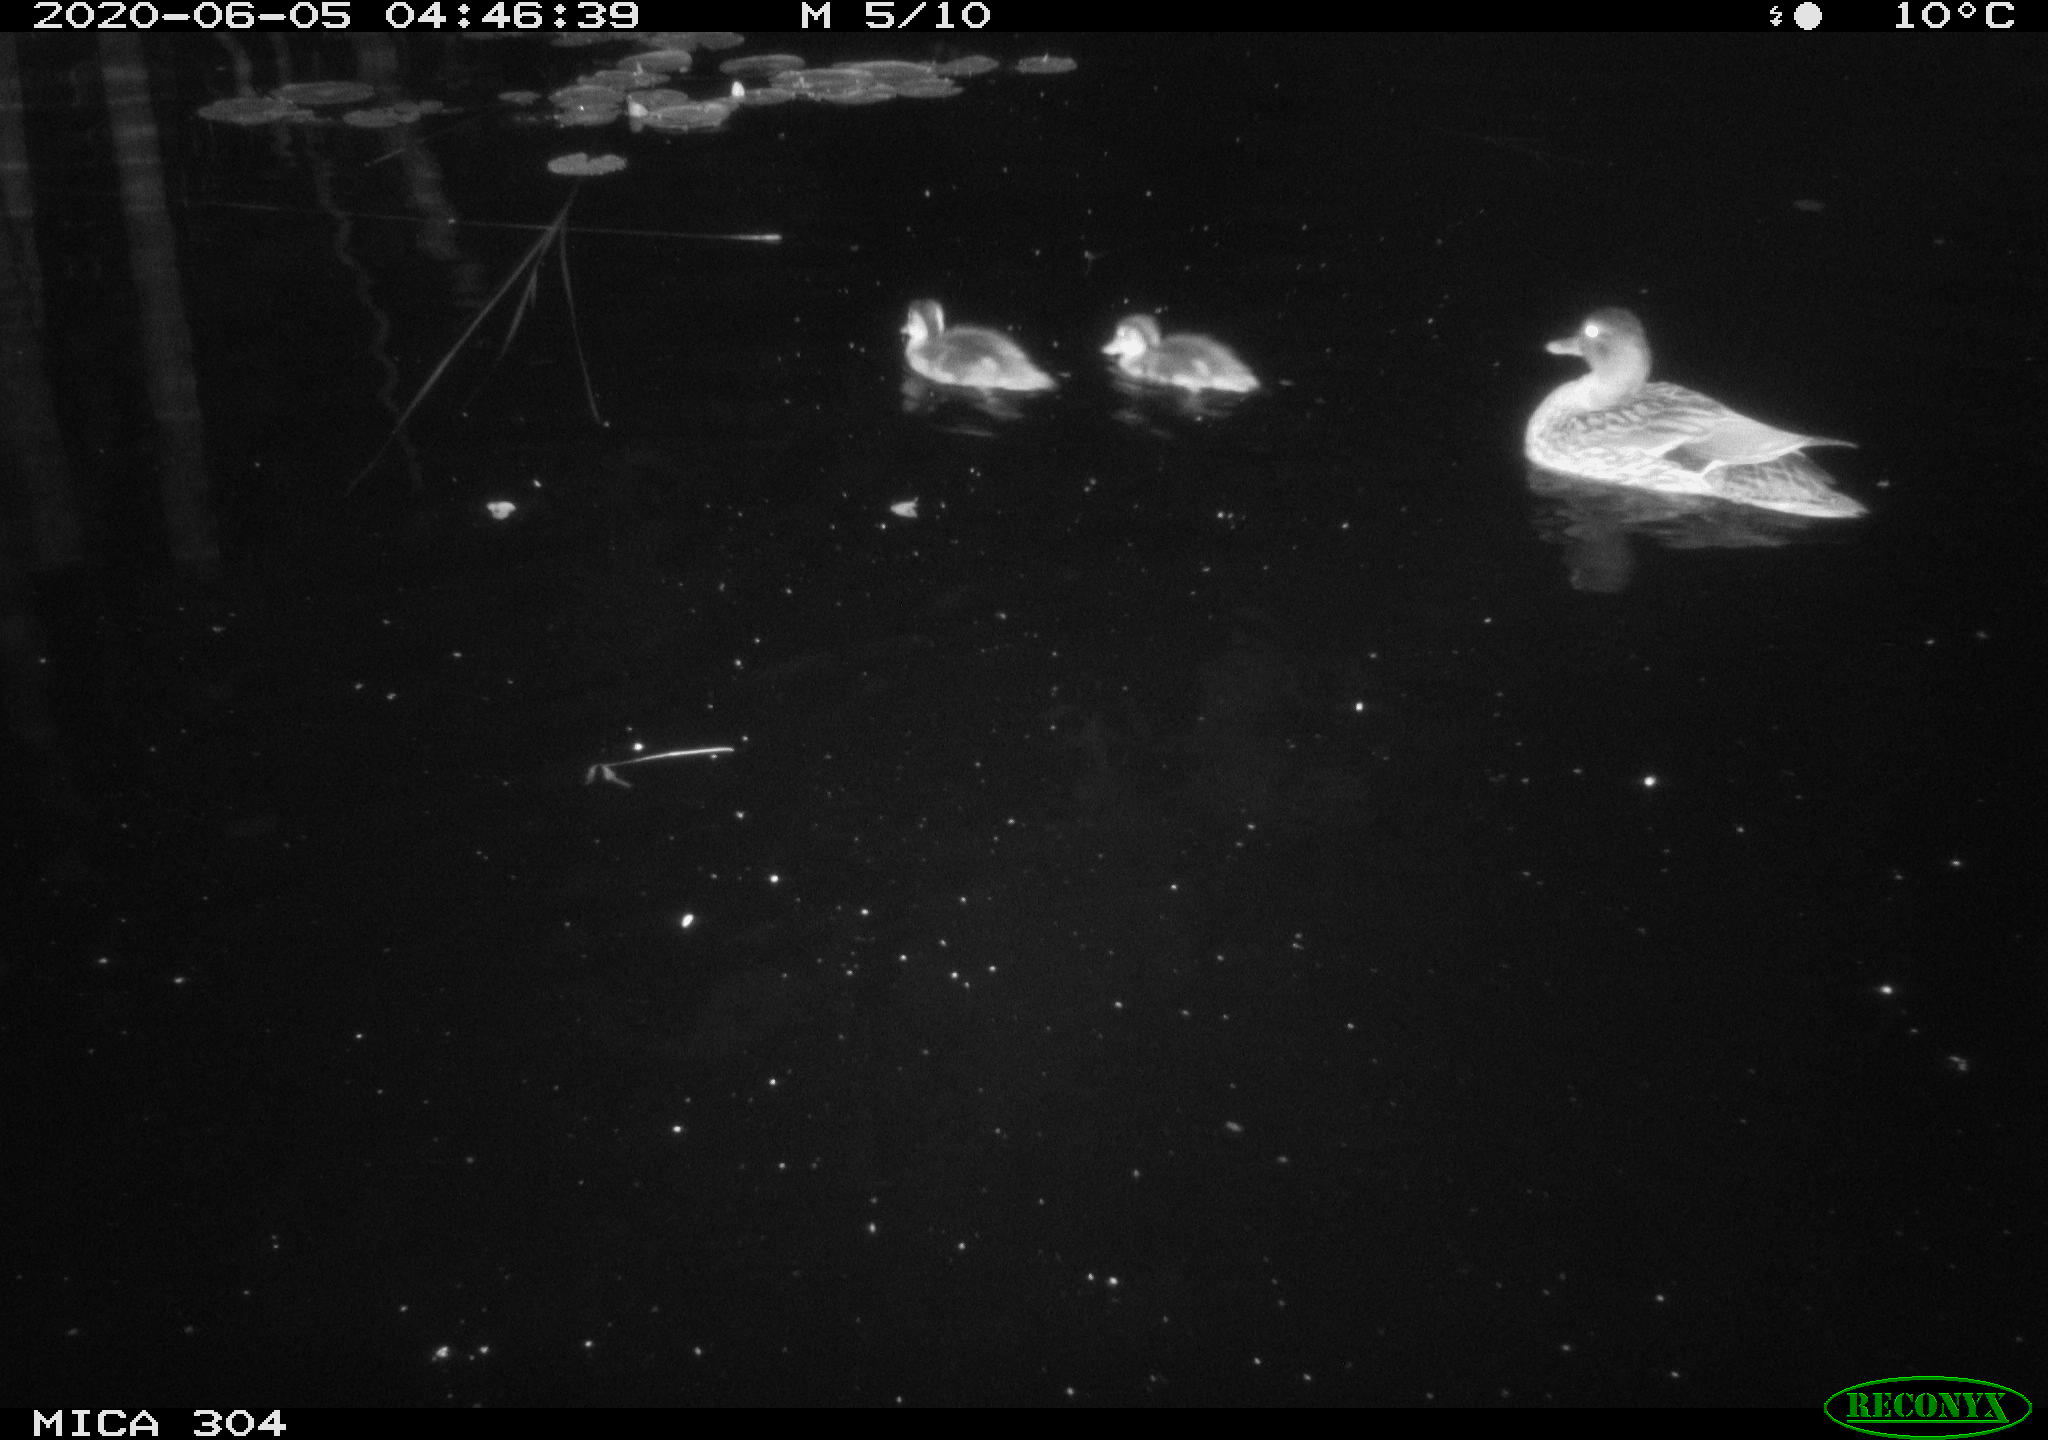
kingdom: Animalia
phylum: Chordata
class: Aves
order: Anseriformes
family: Anatidae
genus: Anas
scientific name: Anas platyrhynchos
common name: Mallard
